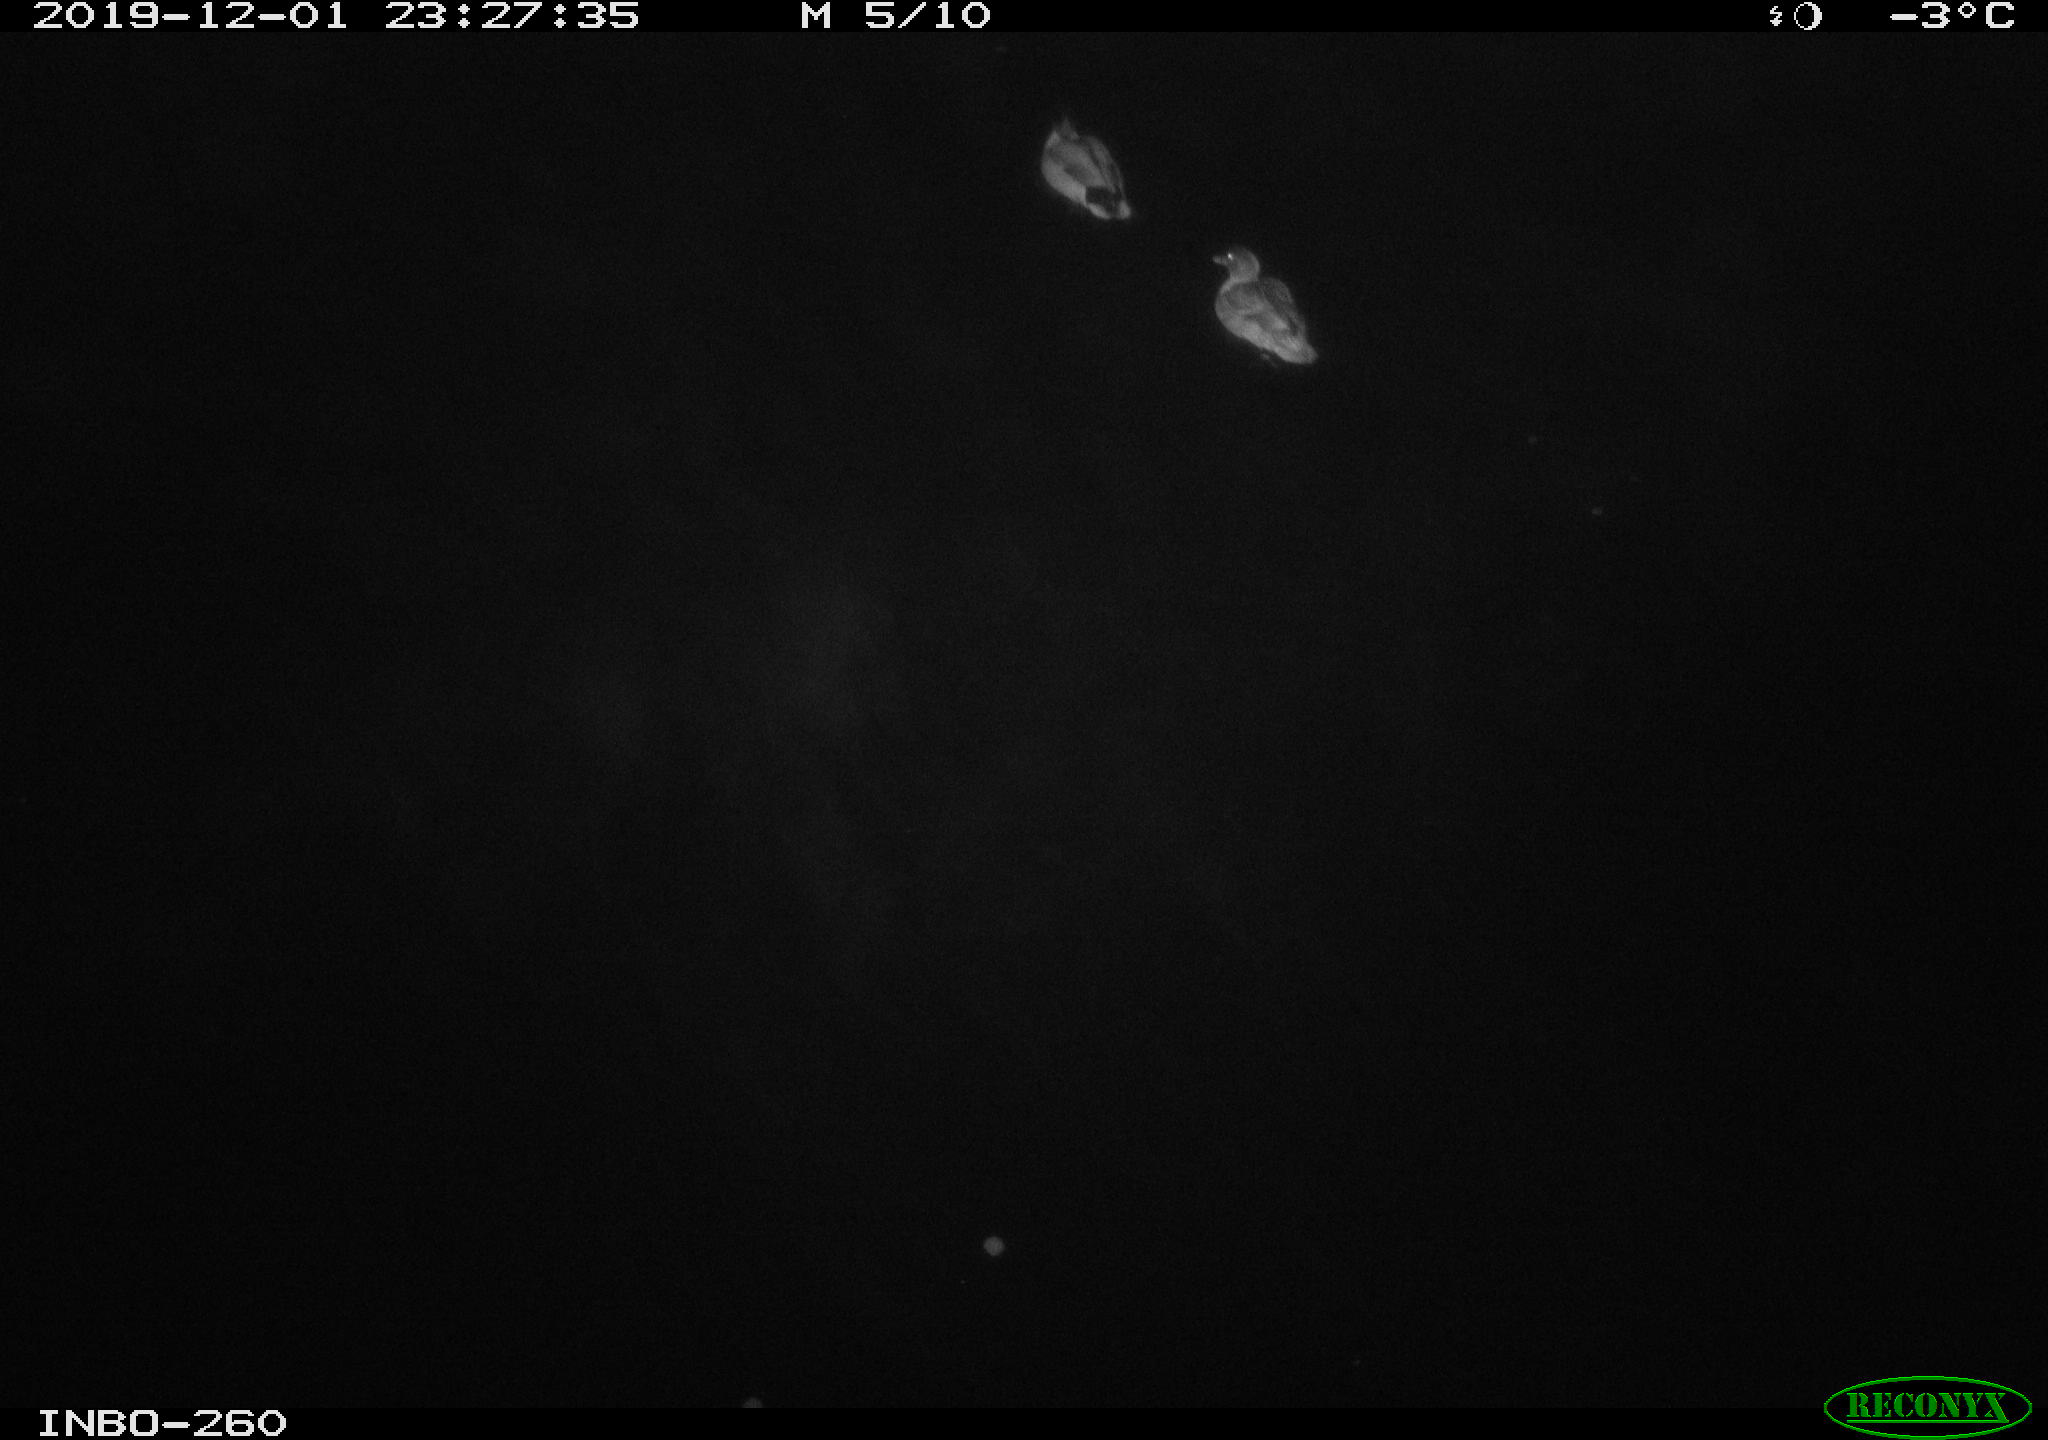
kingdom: Animalia
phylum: Chordata
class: Aves
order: Anseriformes
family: Anatidae
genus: Anas
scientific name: Anas platyrhynchos
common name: Mallard
